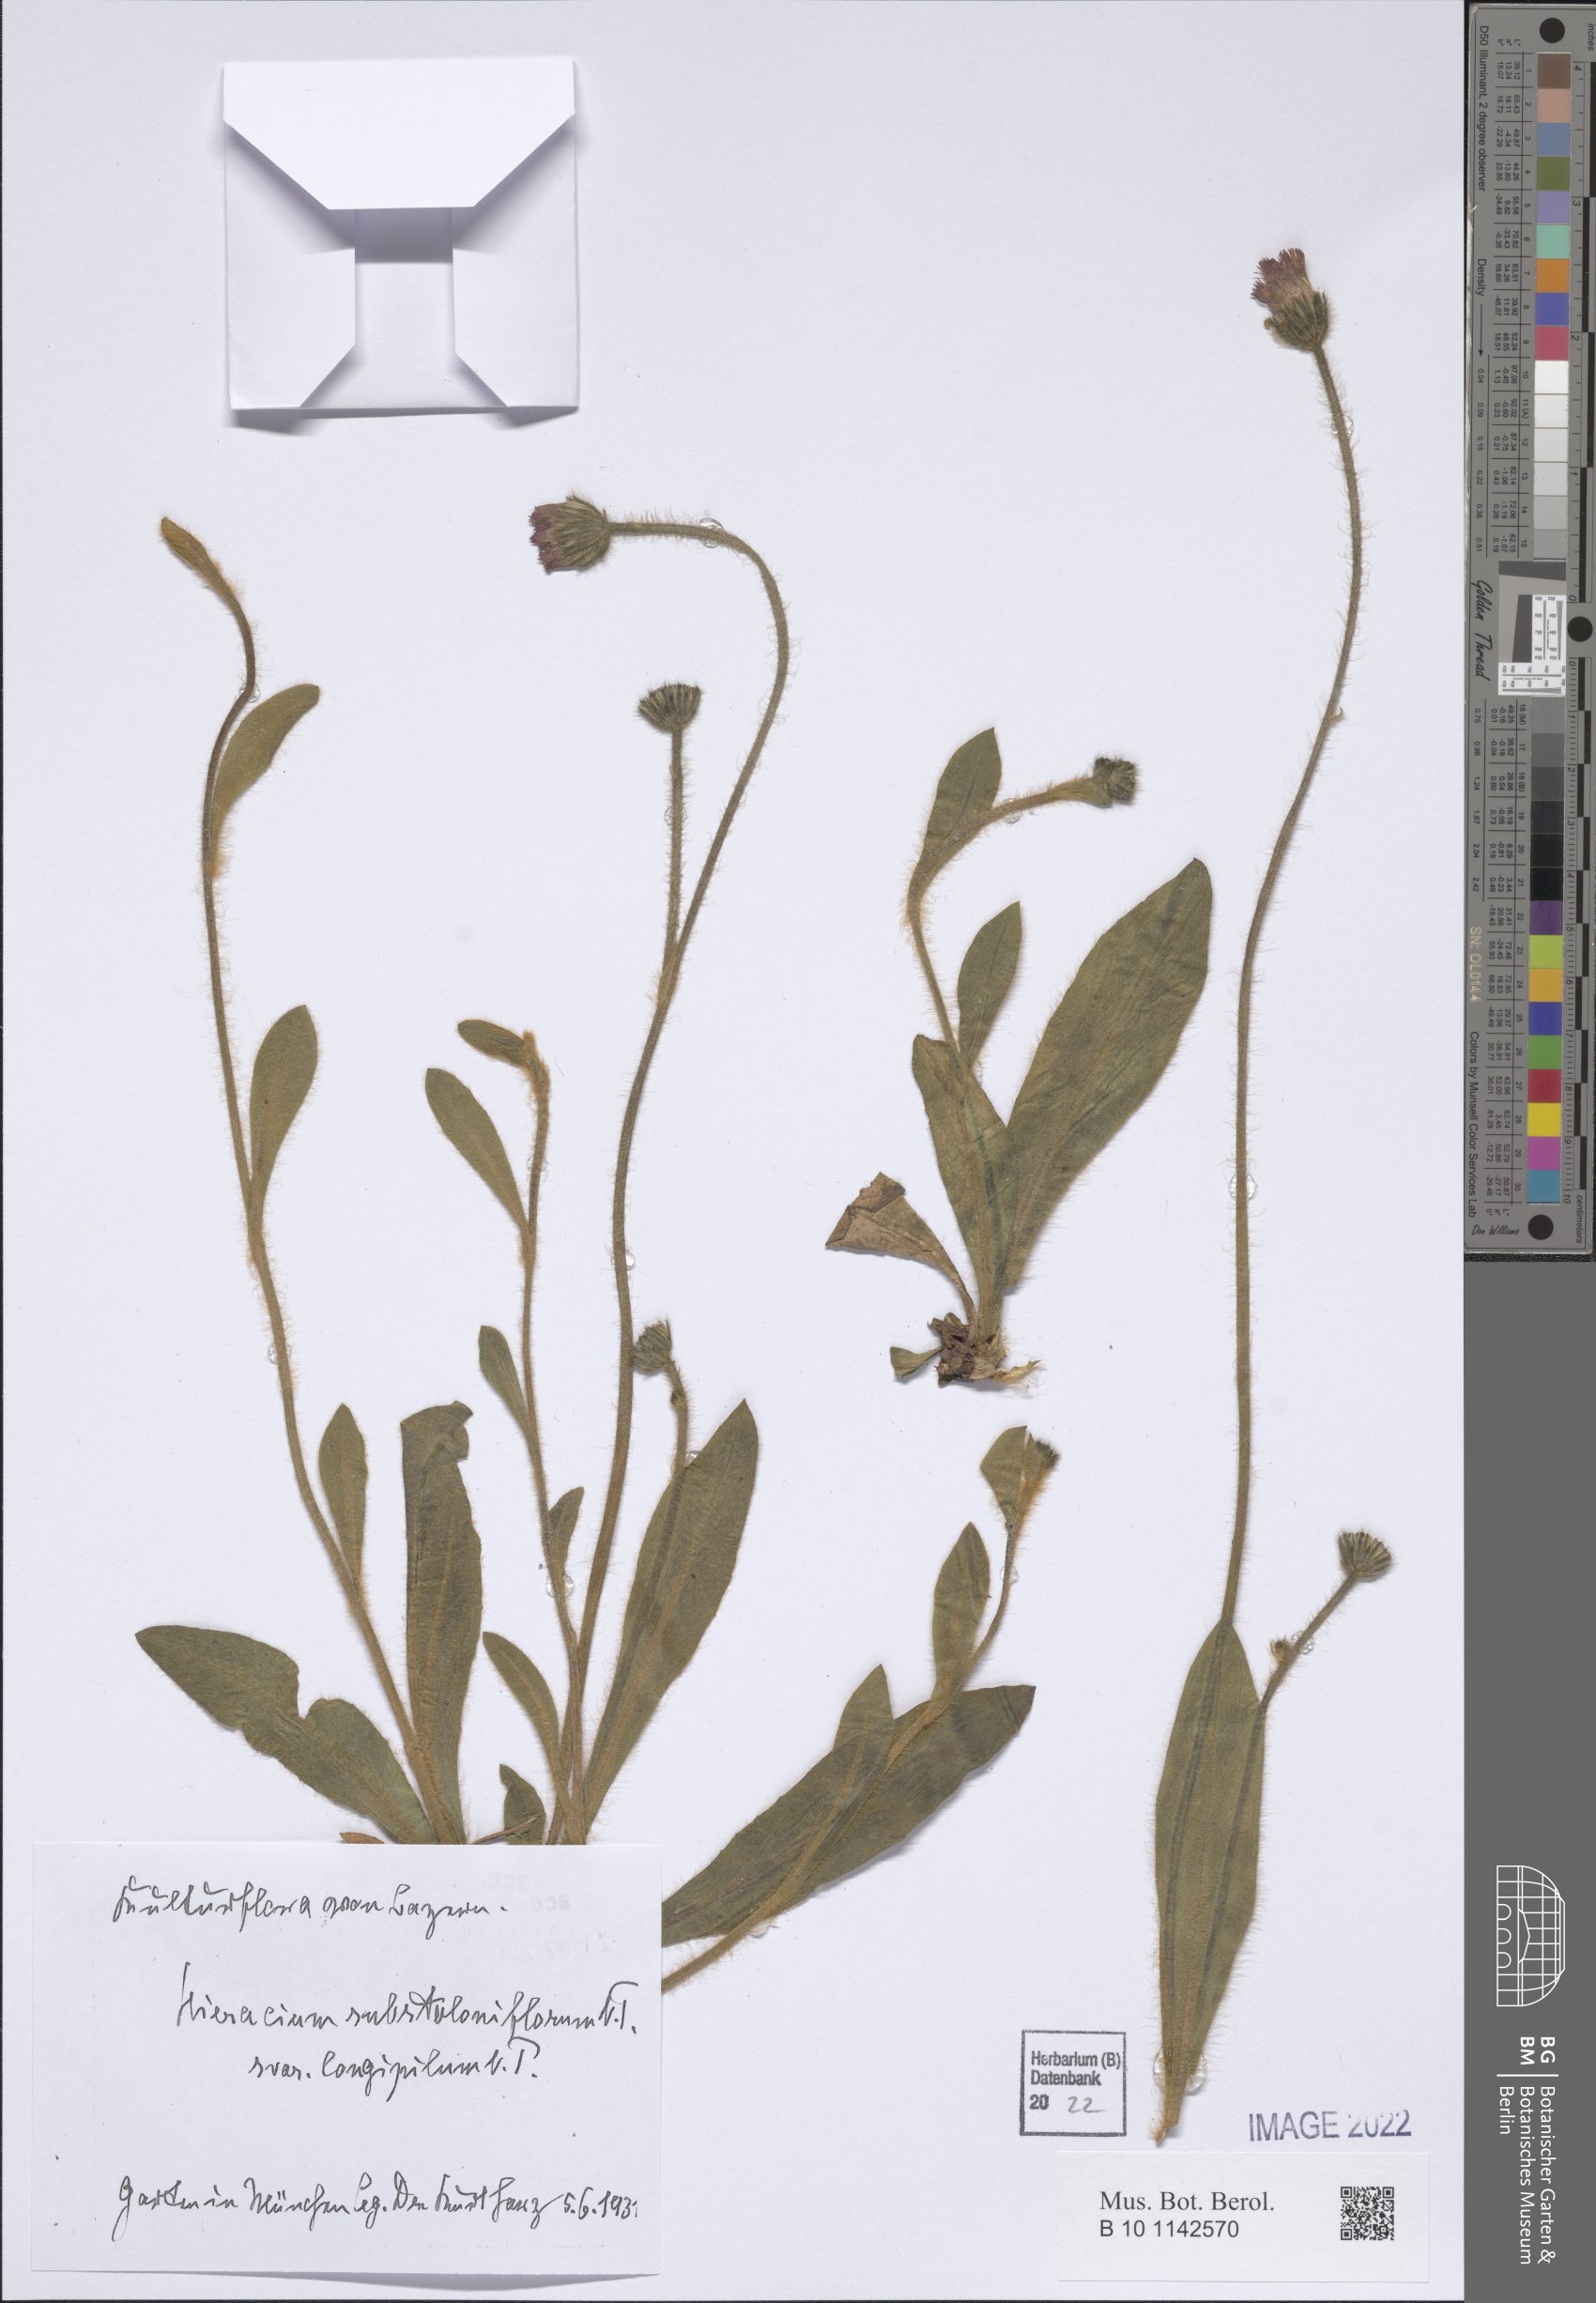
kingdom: Plantae
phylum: Tracheophyta
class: Magnoliopsida
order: Asterales
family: Asteraceae
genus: Pilosella
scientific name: Pilosella rubra
